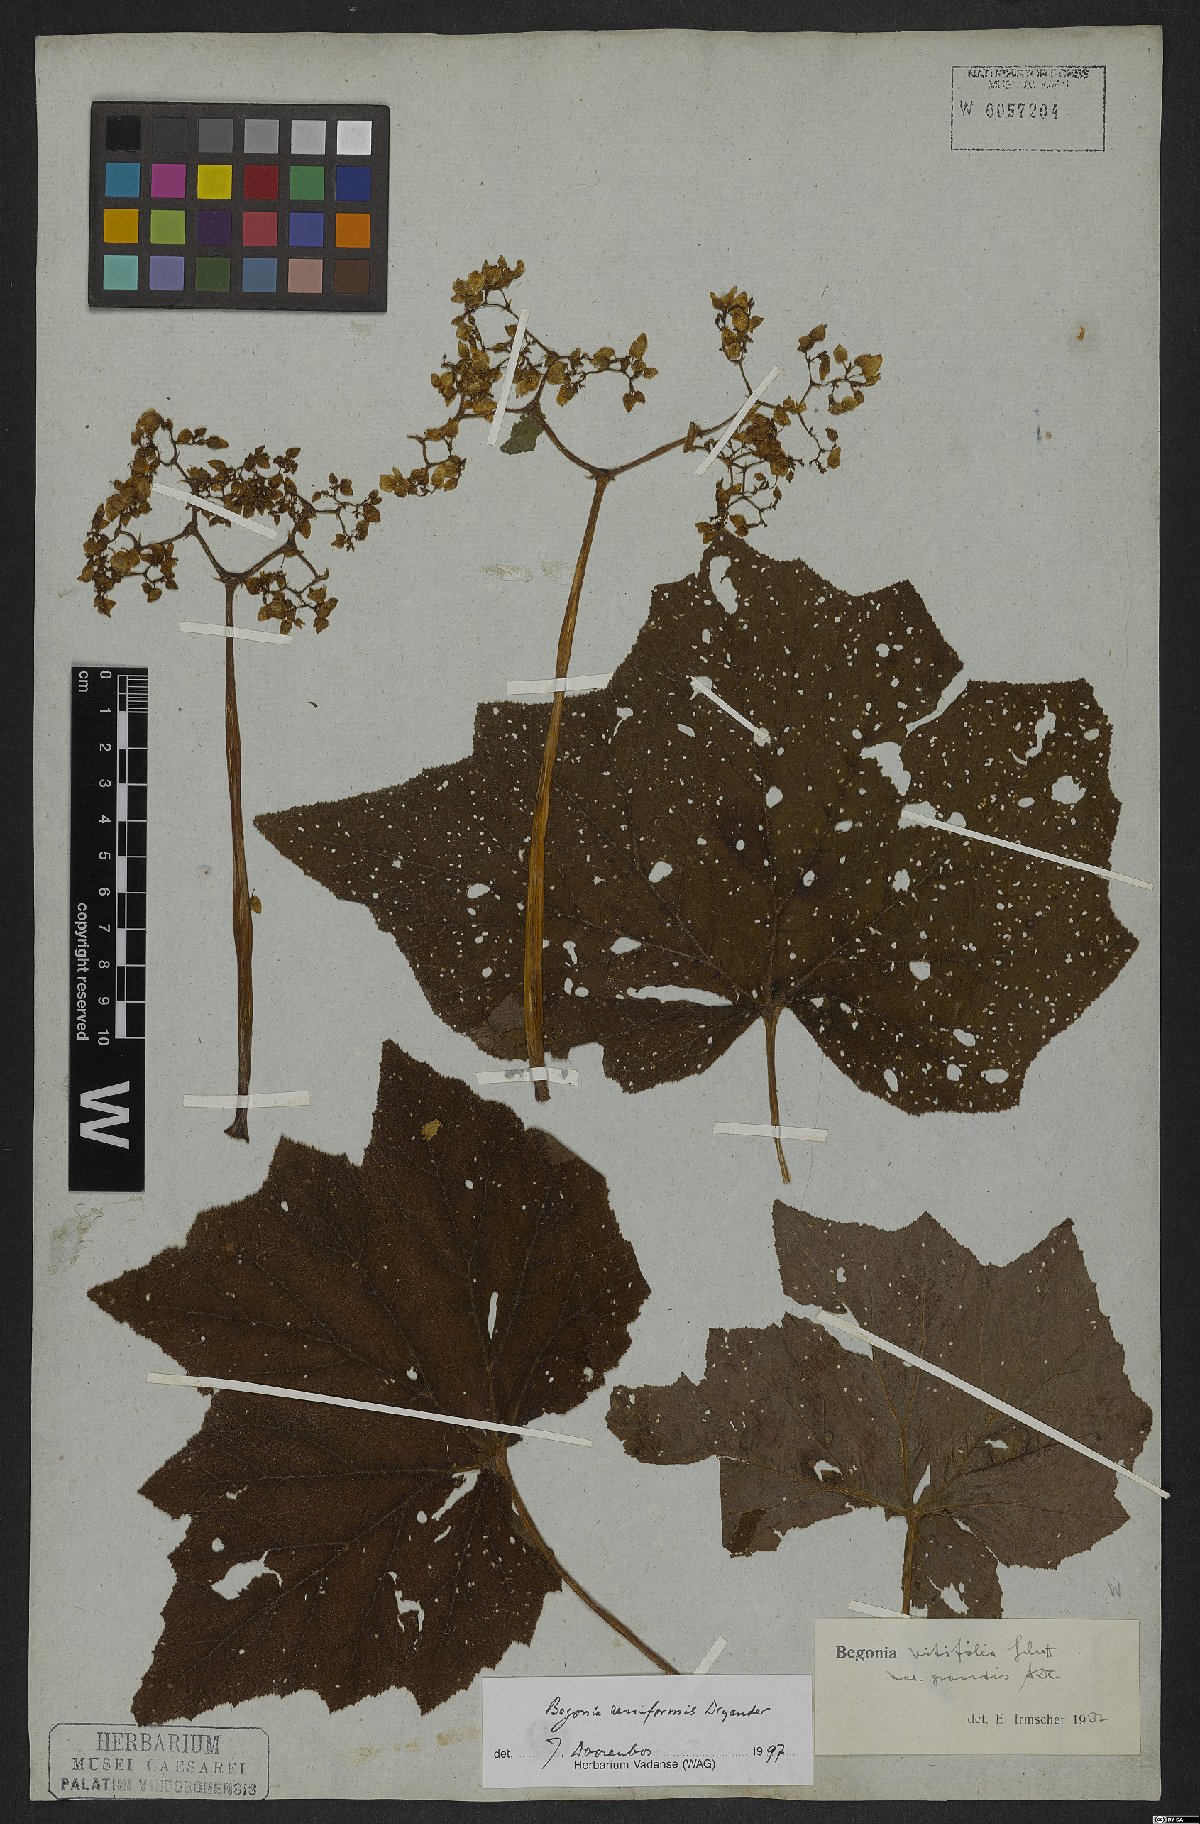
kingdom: Plantae
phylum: Tracheophyta
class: Magnoliopsida
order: Cucurbitales
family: Begoniaceae
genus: Begonia
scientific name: Begonia reniformis
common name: Grapeleaf begonia
